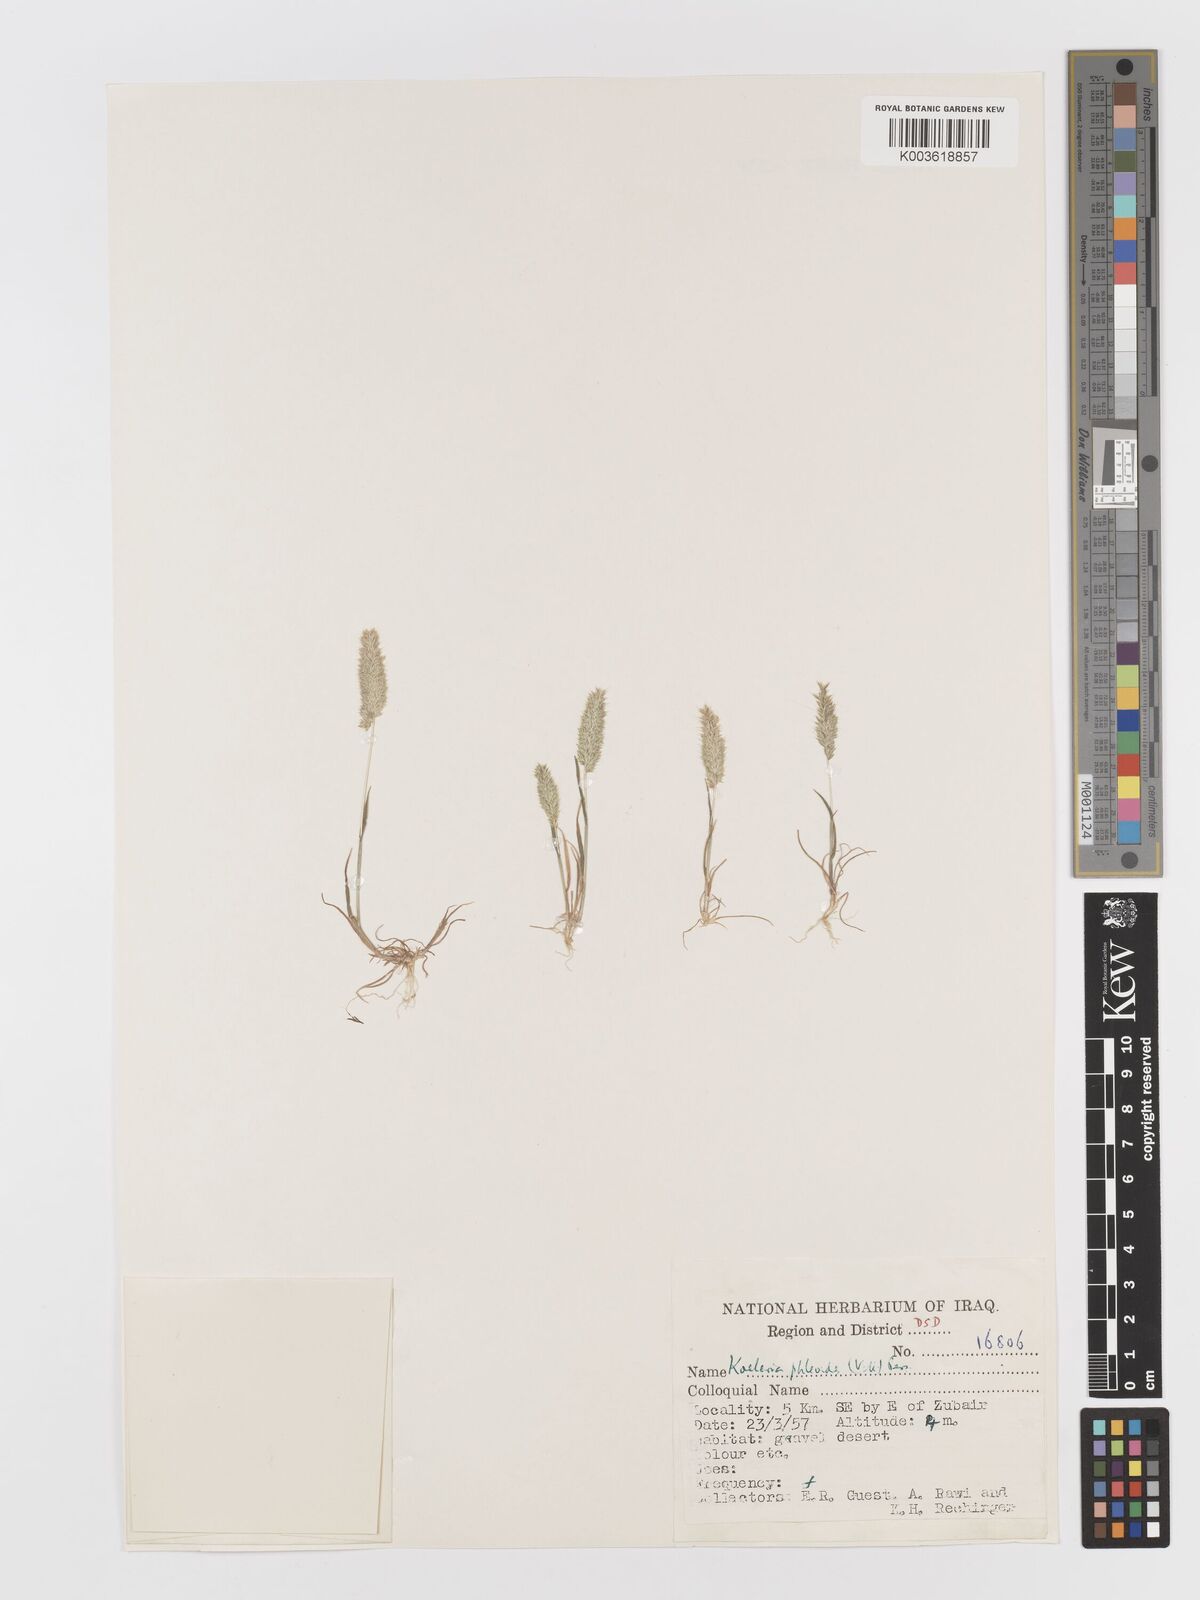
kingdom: Plantae
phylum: Tracheophyta
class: Liliopsida
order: Poales
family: Poaceae
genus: Rostraria
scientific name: Rostraria cristata
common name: Mediterranean hair-grass
